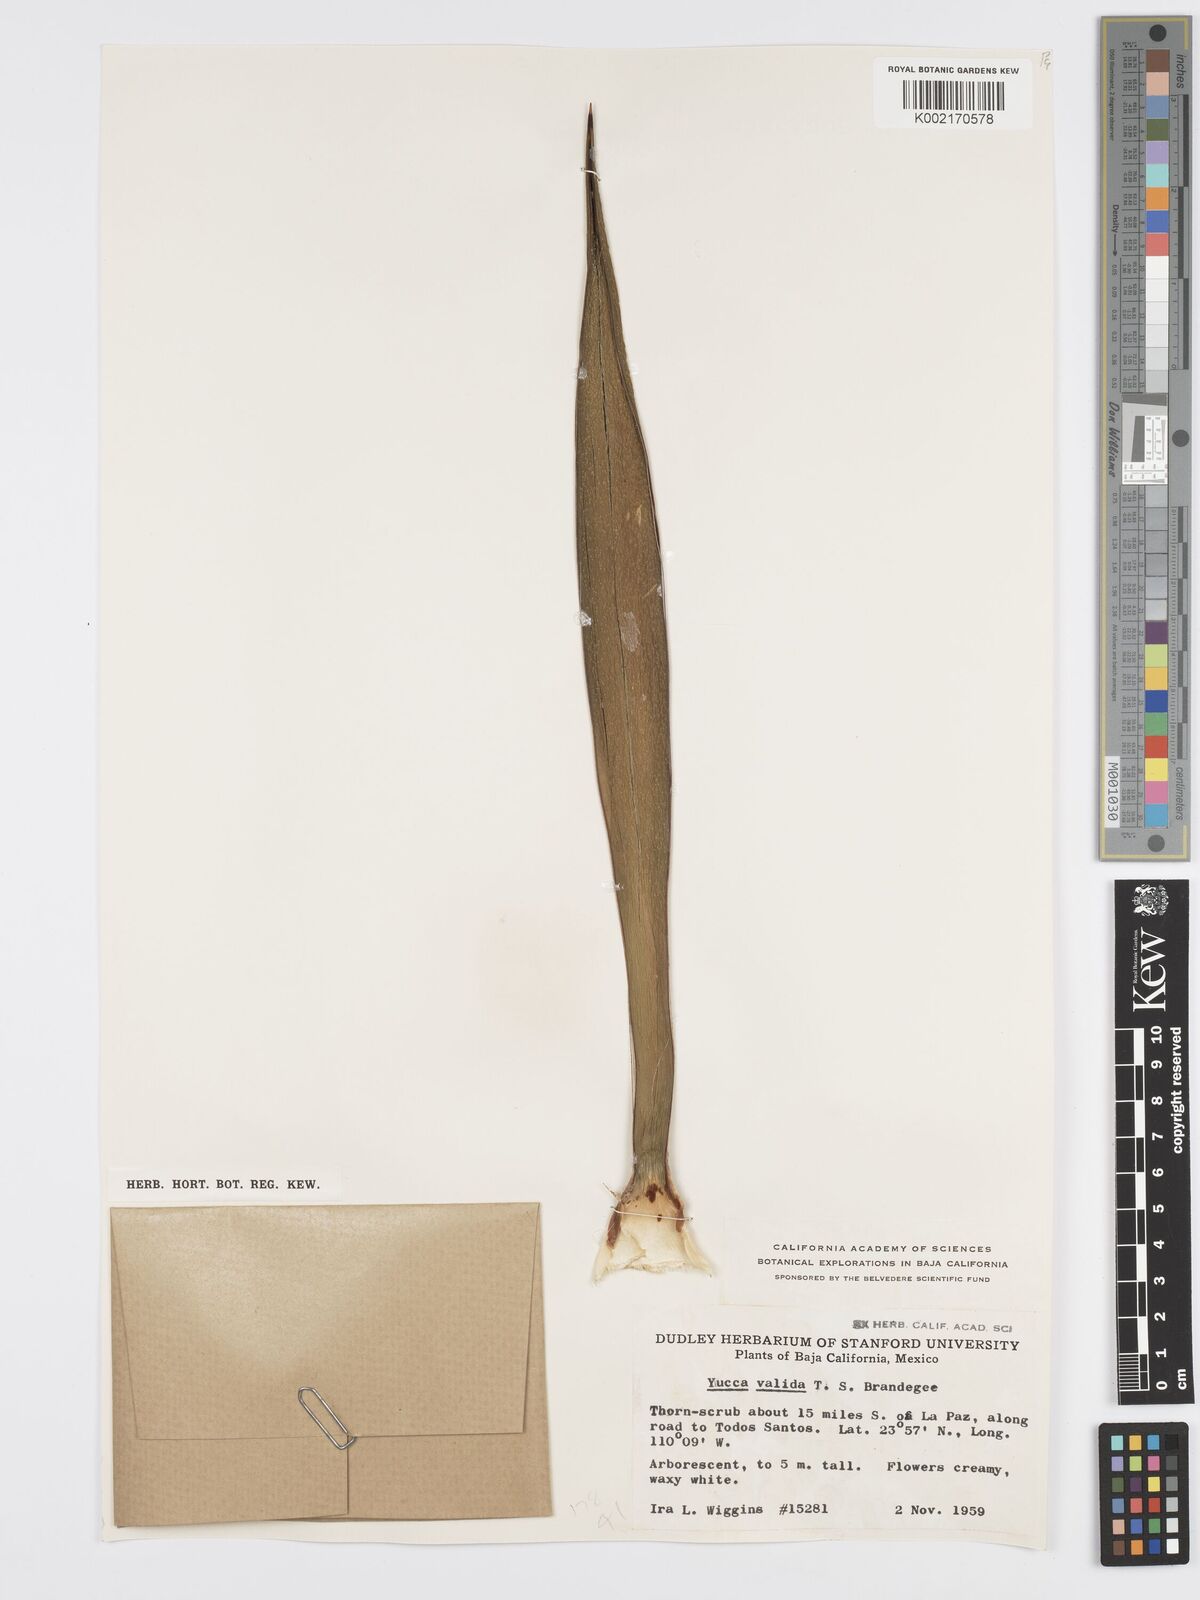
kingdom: Plantae
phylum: Tracheophyta
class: Liliopsida
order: Asparagales
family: Asparagaceae
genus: Yucca
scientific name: Yucca valida
